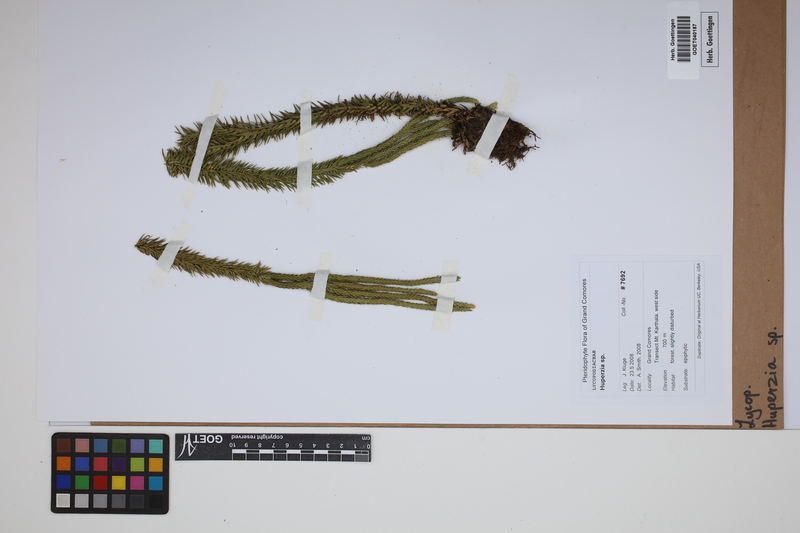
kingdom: Plantae
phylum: Tracheophyta
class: Lycopodiopsida
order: Lycopodiales
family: Lycopodiaceae
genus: Phlegmariurus
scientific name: Phlegmariurus
